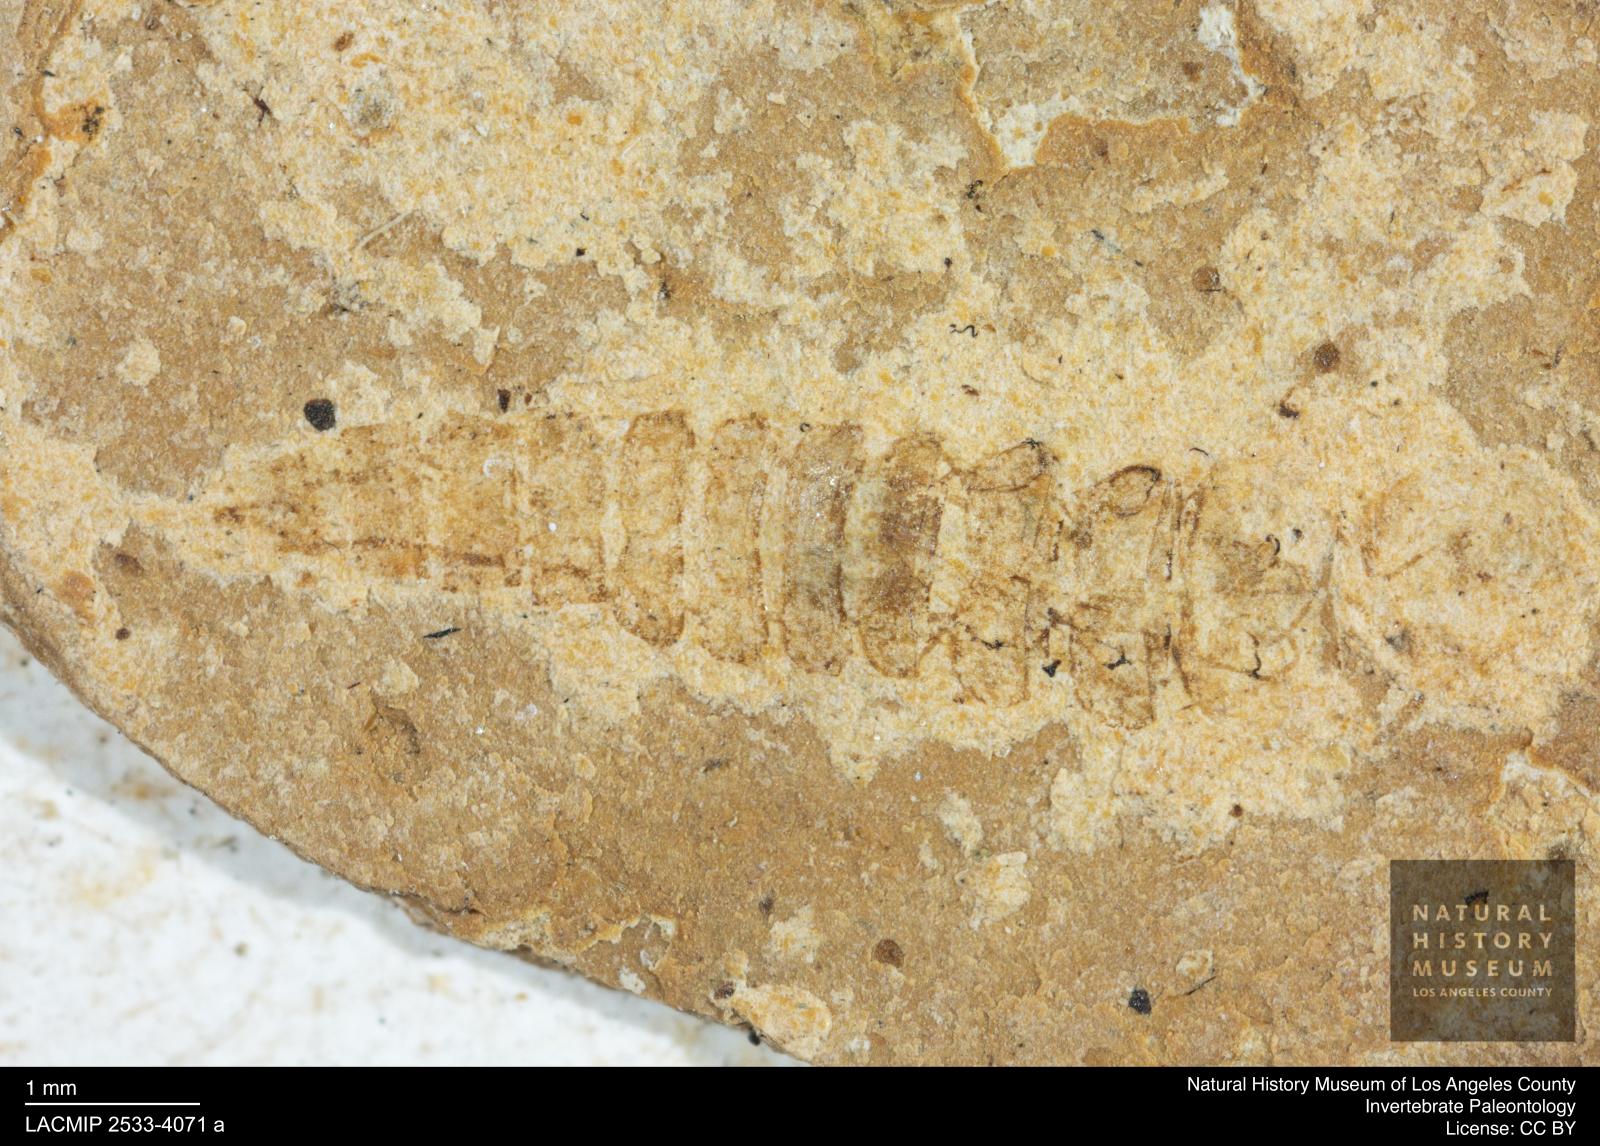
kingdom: Animalia
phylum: Arthropoda
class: Insecta
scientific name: Insecta
